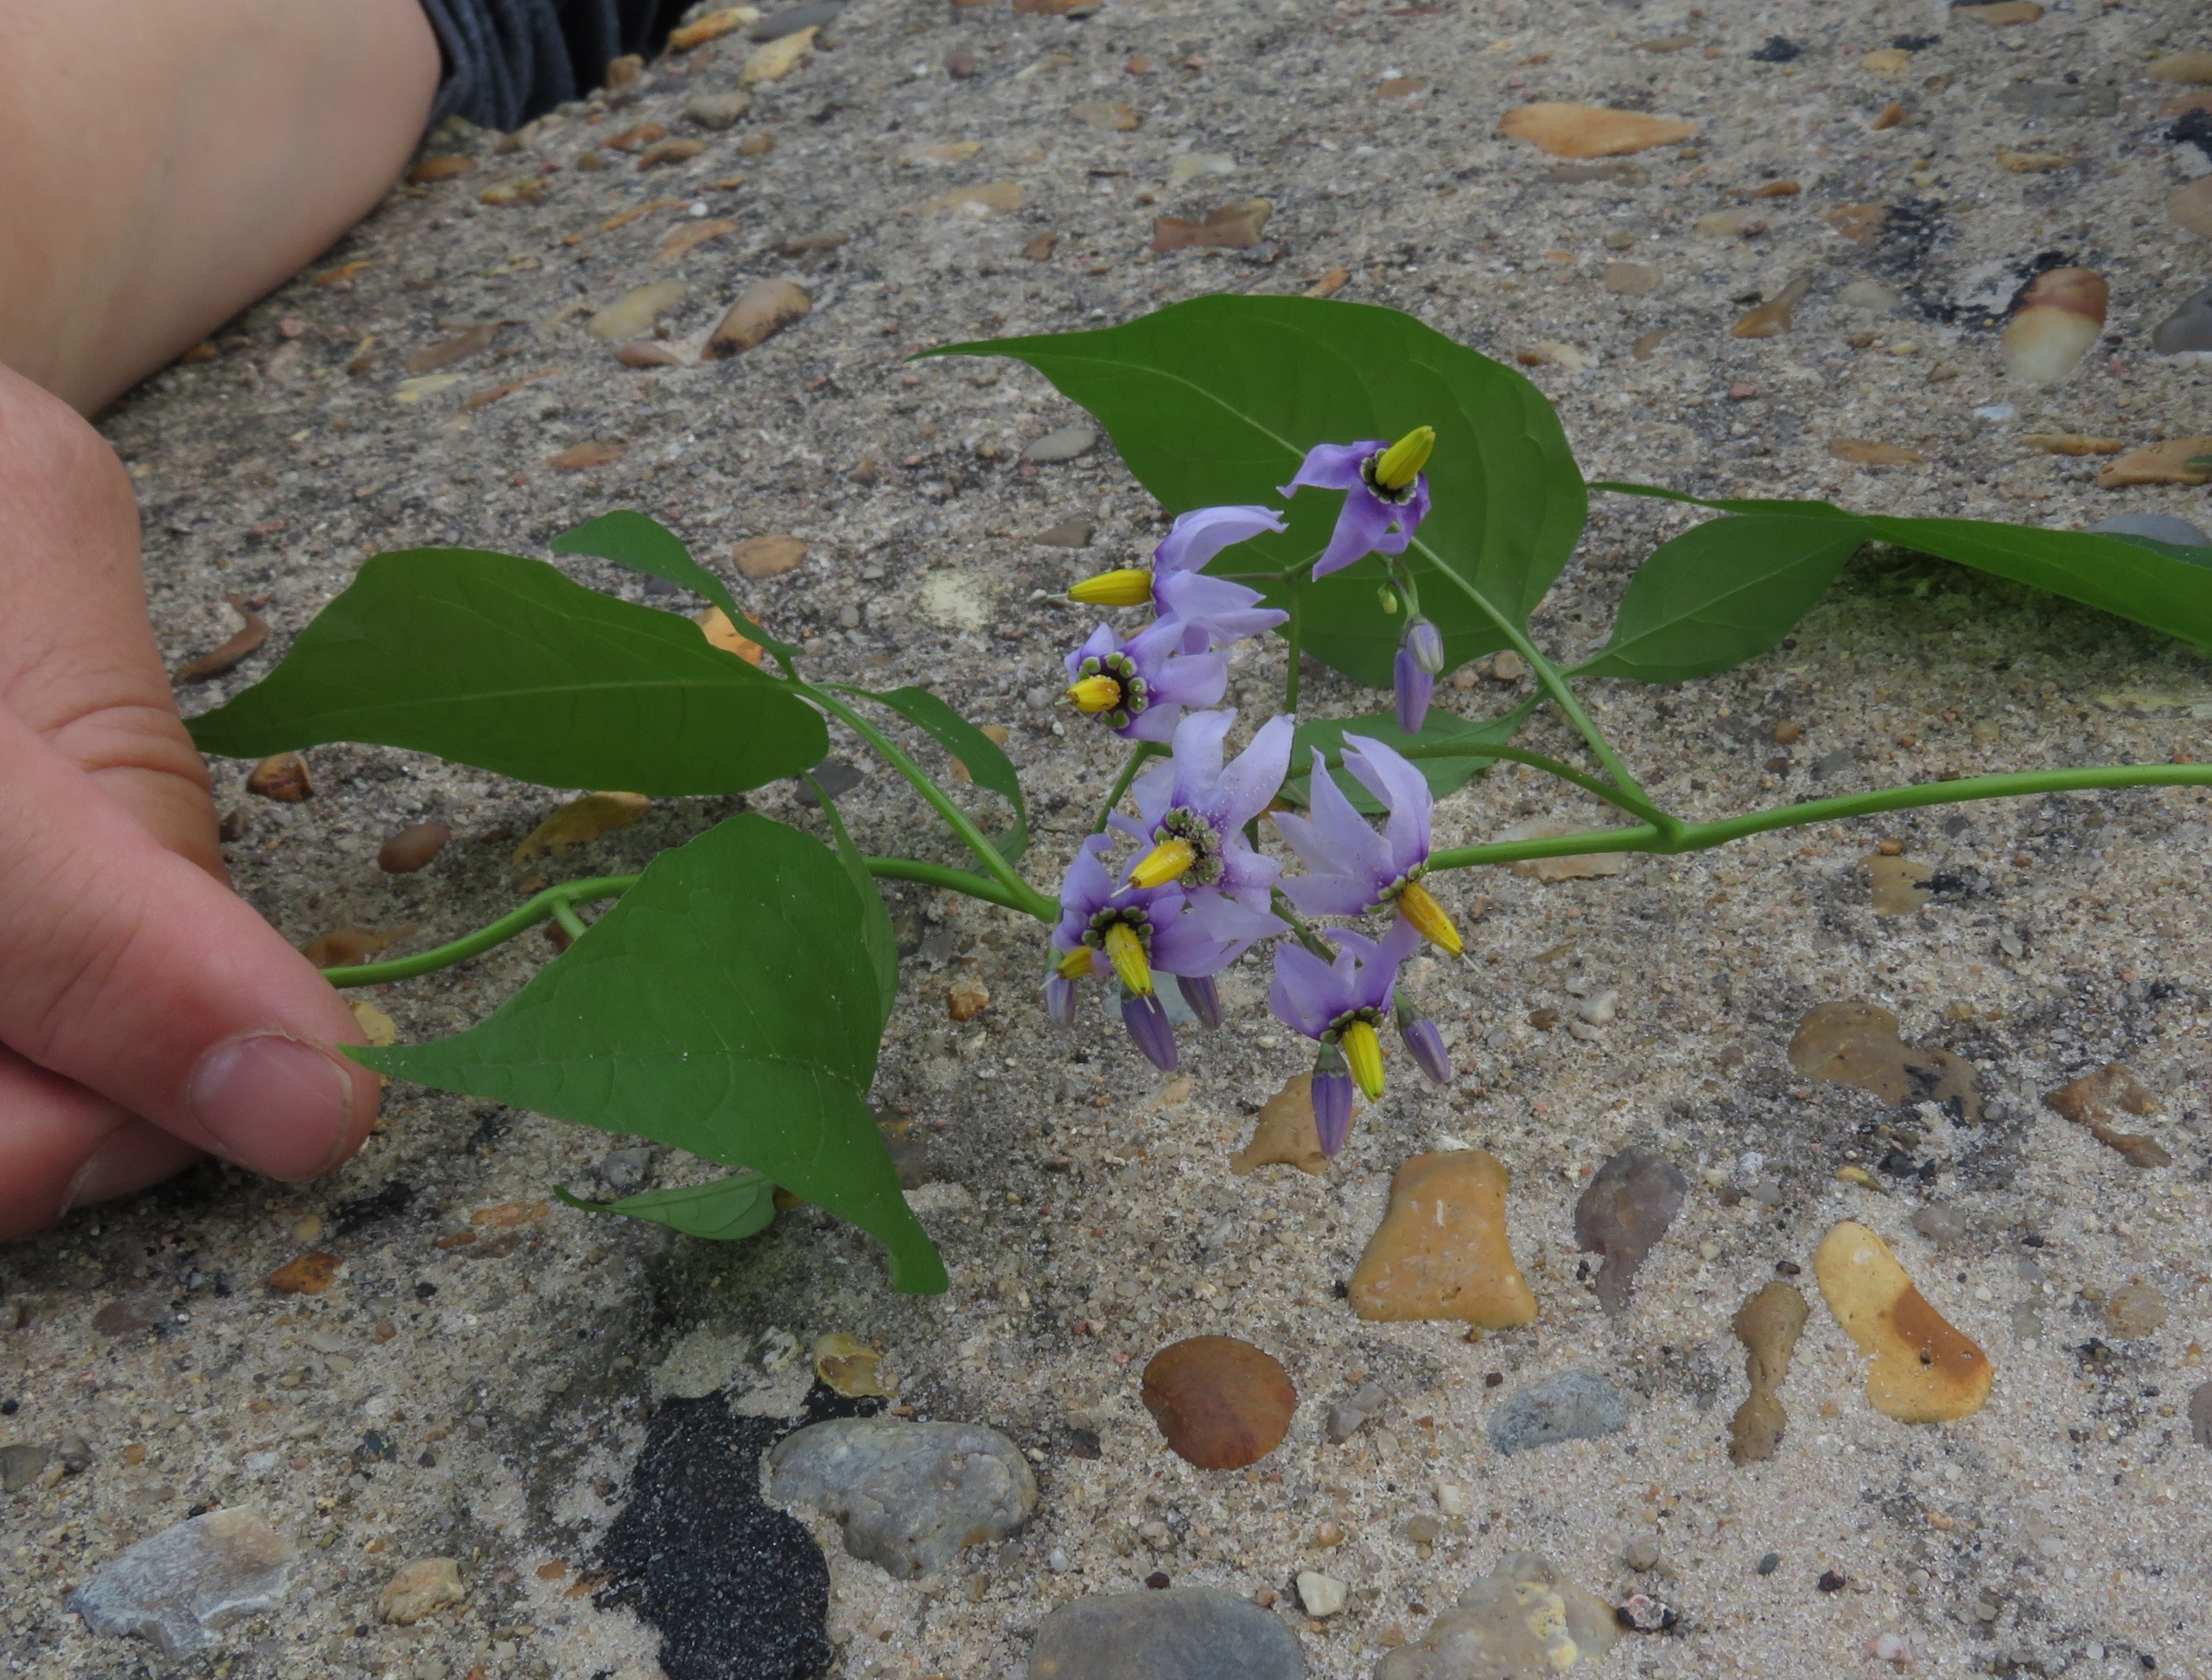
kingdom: Plantae
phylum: Tracheophyta
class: Magnoliopsida
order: Solanales
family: Solanaceae
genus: Solanum
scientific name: Solanum dulcamara
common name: Bittersød natskygge
